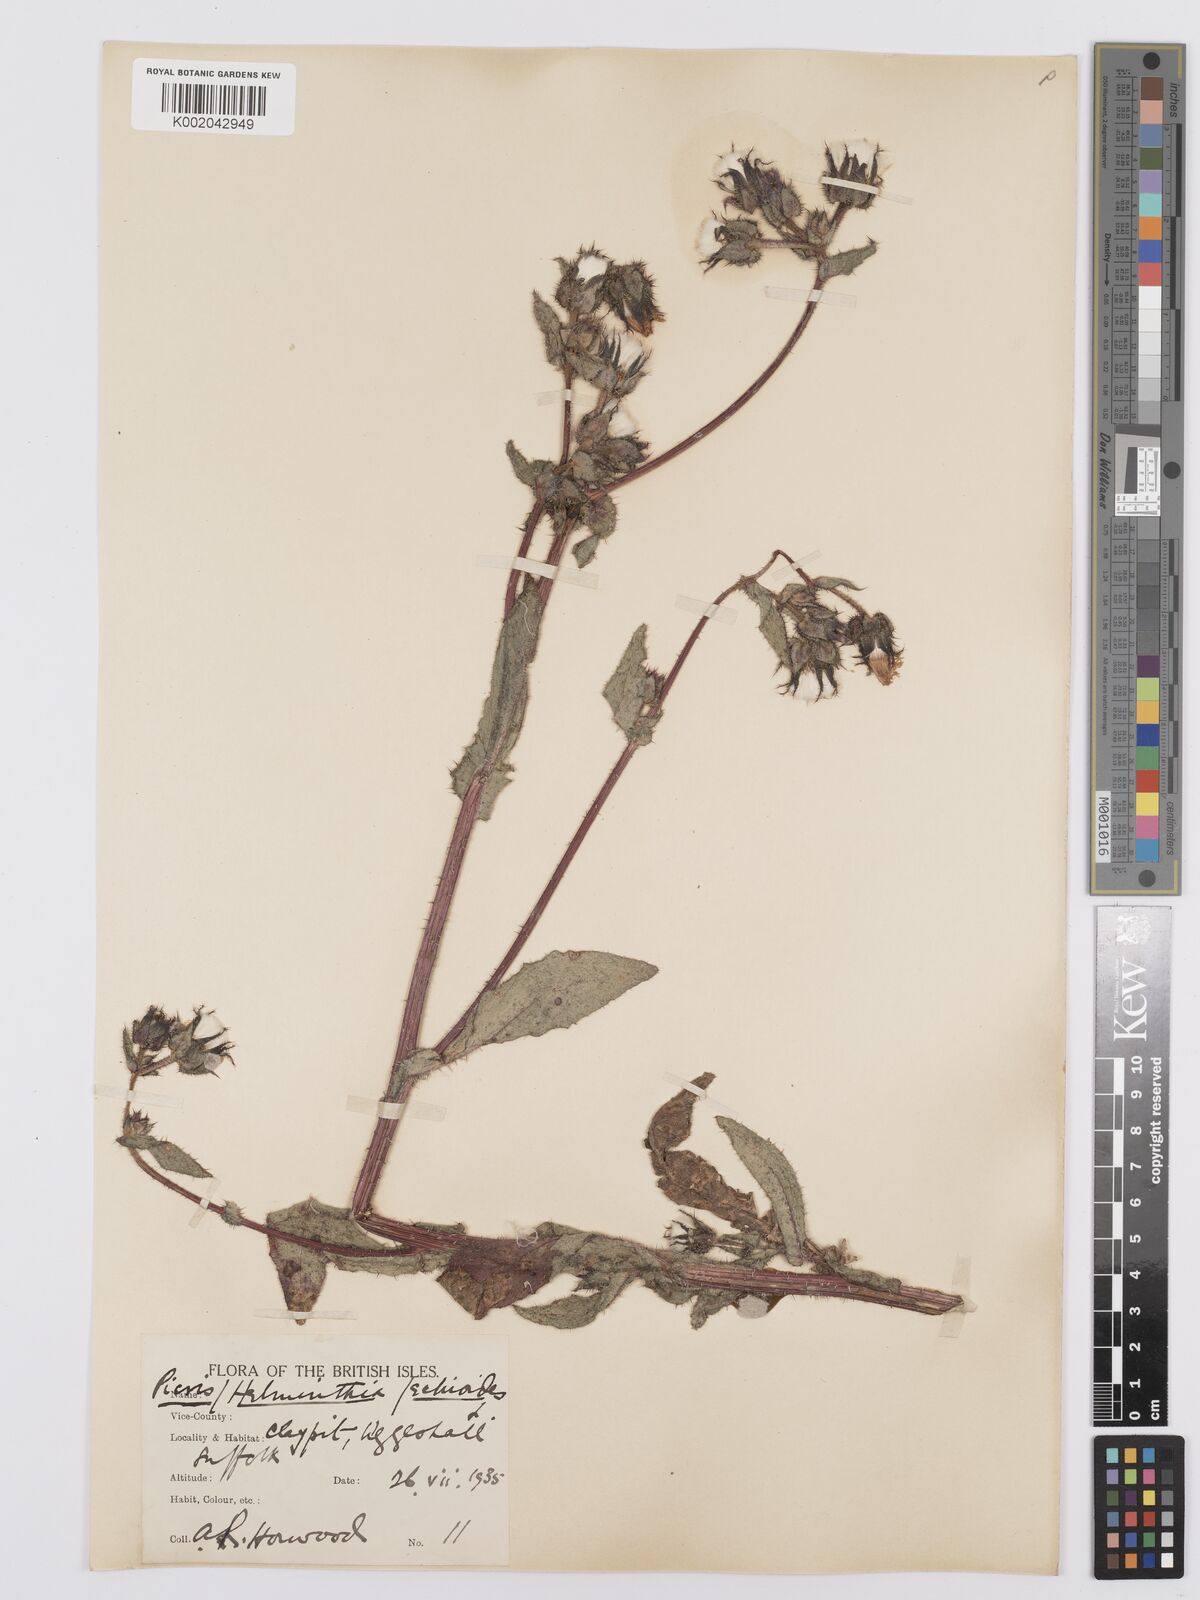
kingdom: Plantae
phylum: Tracheophyta
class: Magnoliopsida
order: Asterales
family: Asteraceae
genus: Helminthotheca
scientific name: Helminthotheca echioides
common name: Ox-tongue
